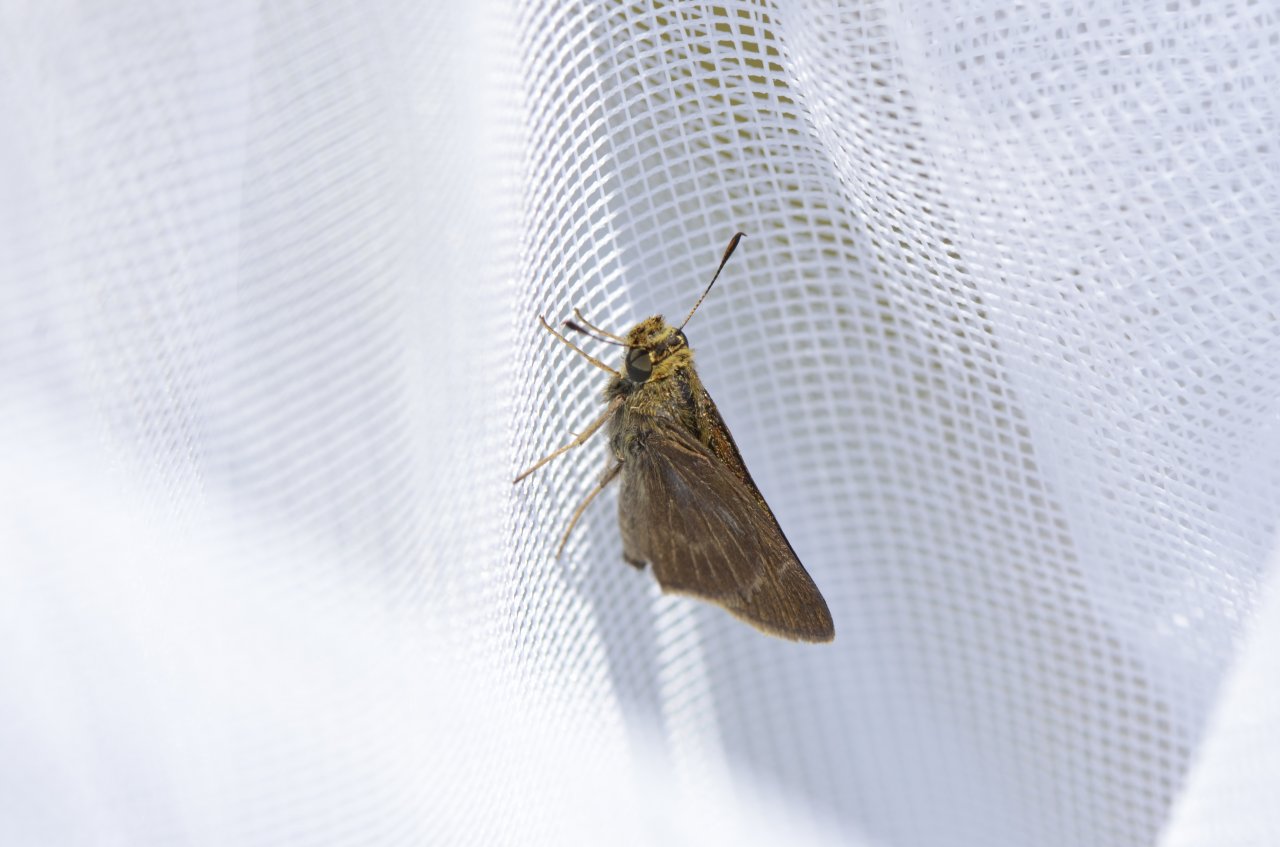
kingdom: Animalia
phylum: Arthropoda
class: Insecta
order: Lepidoptera
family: Hesperiidae
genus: Euphyes
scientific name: Euphyes vestris
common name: Dun Skipper
